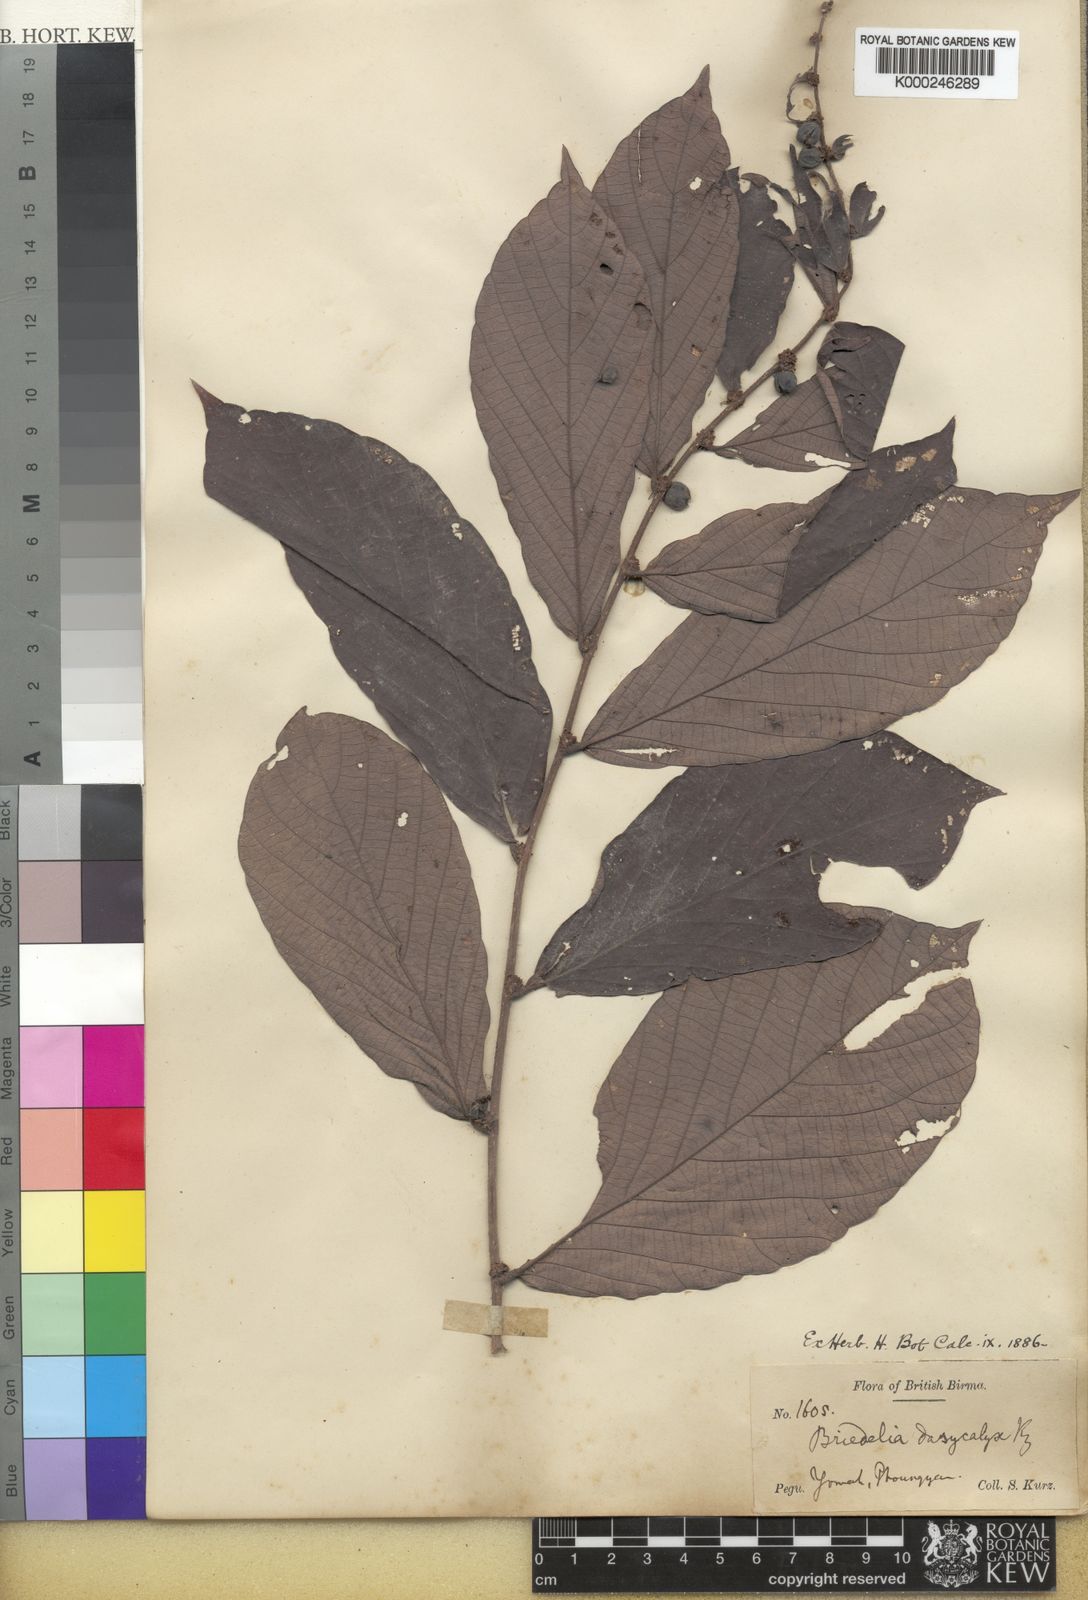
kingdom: Plantae
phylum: Tracheophyta
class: Magnoliopsida
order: Malpighiales
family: Phyllanthaceae
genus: Bridelia
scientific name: Bridelia stipularis
